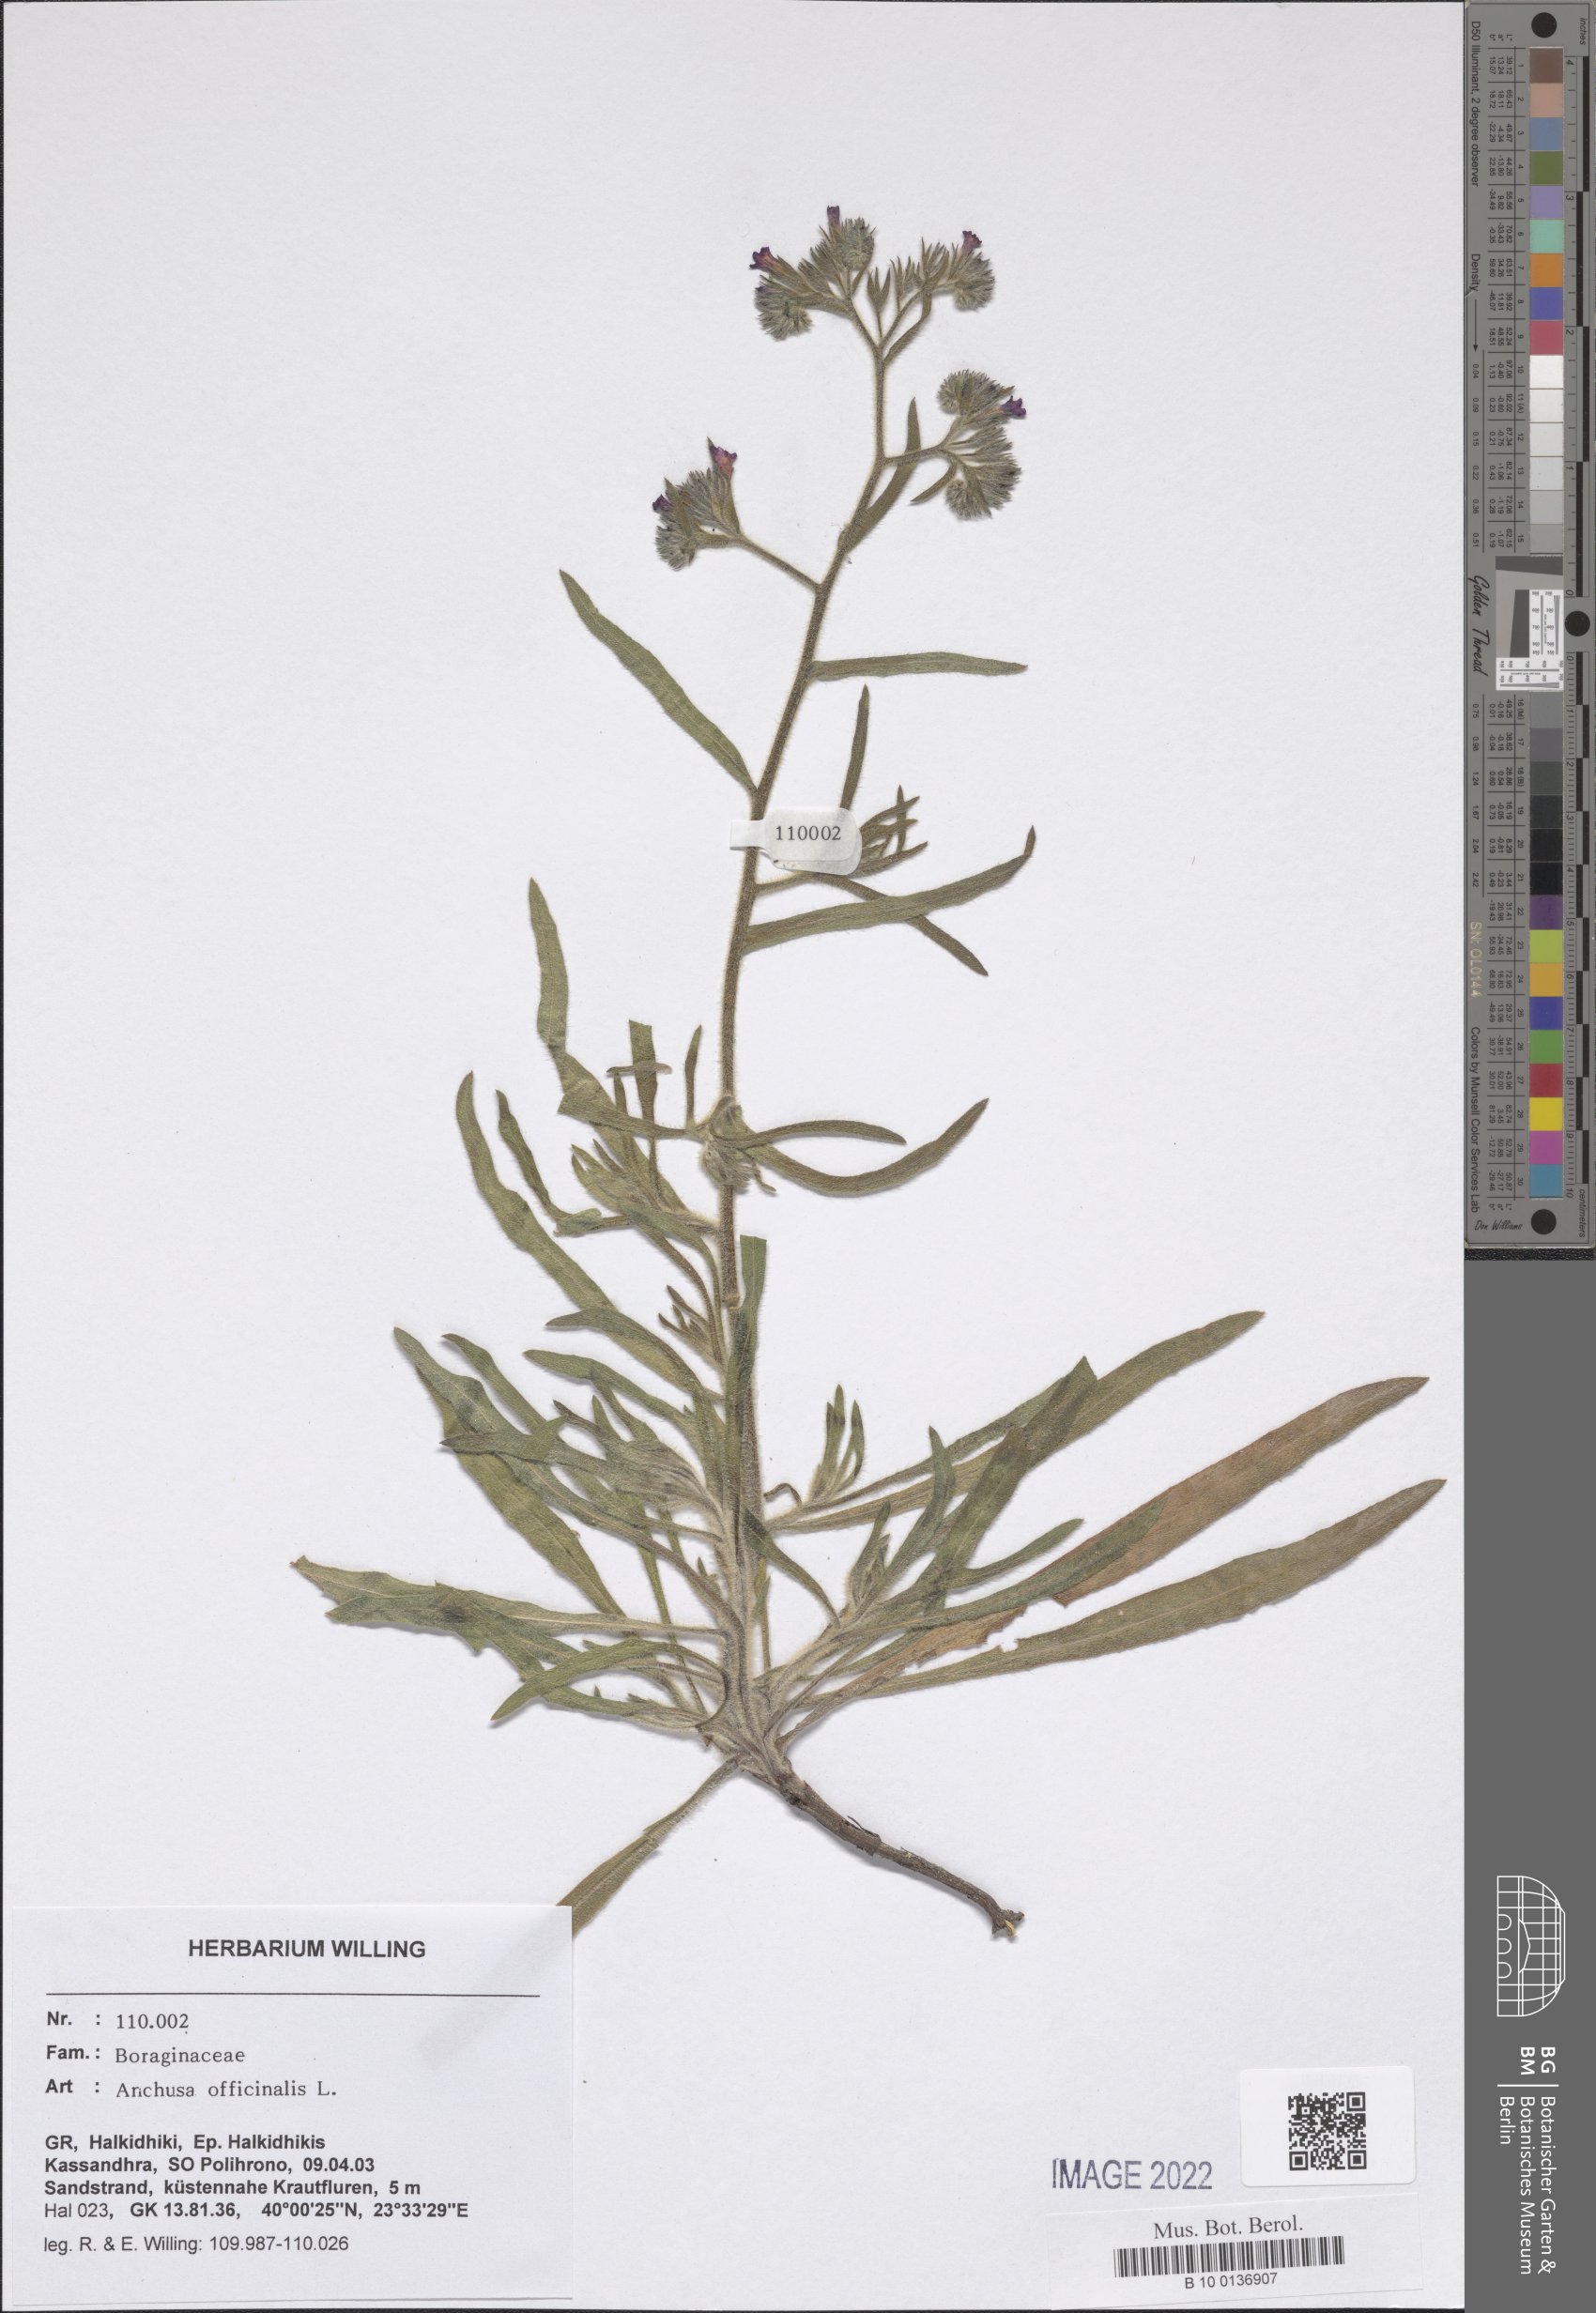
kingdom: Plantae
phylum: Tracheophyta
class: Magnoliopsida
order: Boraginales
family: Boraginaceae
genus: Anchusa
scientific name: Anchusa officinalis
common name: Alkanet
